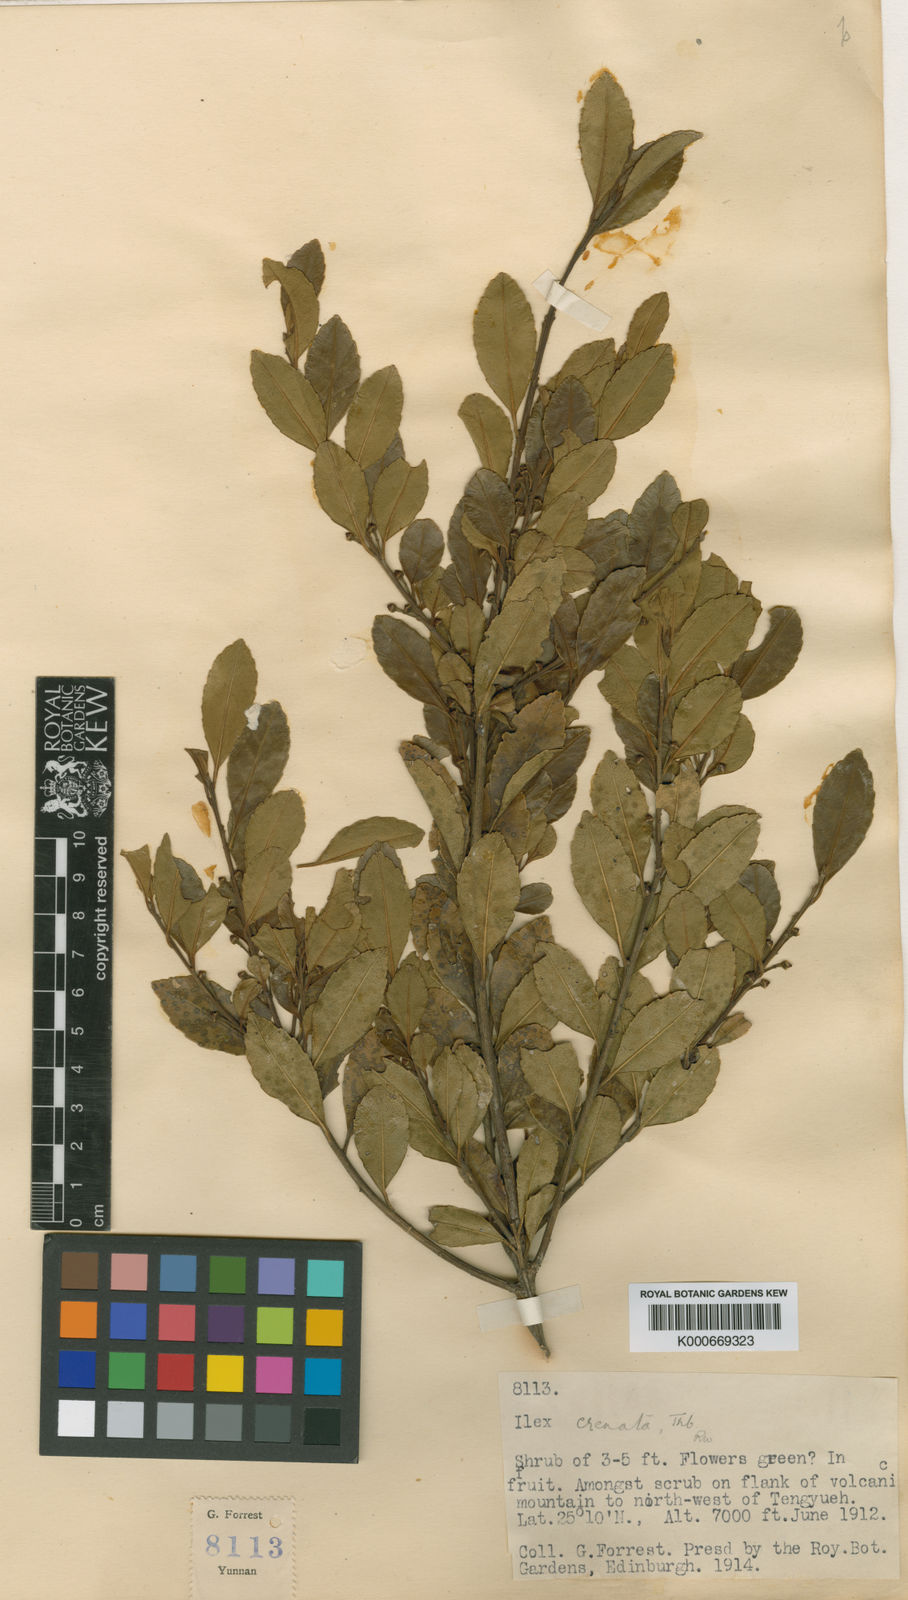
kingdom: Plantae
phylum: Tracheophyta
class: Magnoliopsida
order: Aquifoliales
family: Aquifoliaceae
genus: Ilex
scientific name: Ilex crenata
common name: Japanese holly
